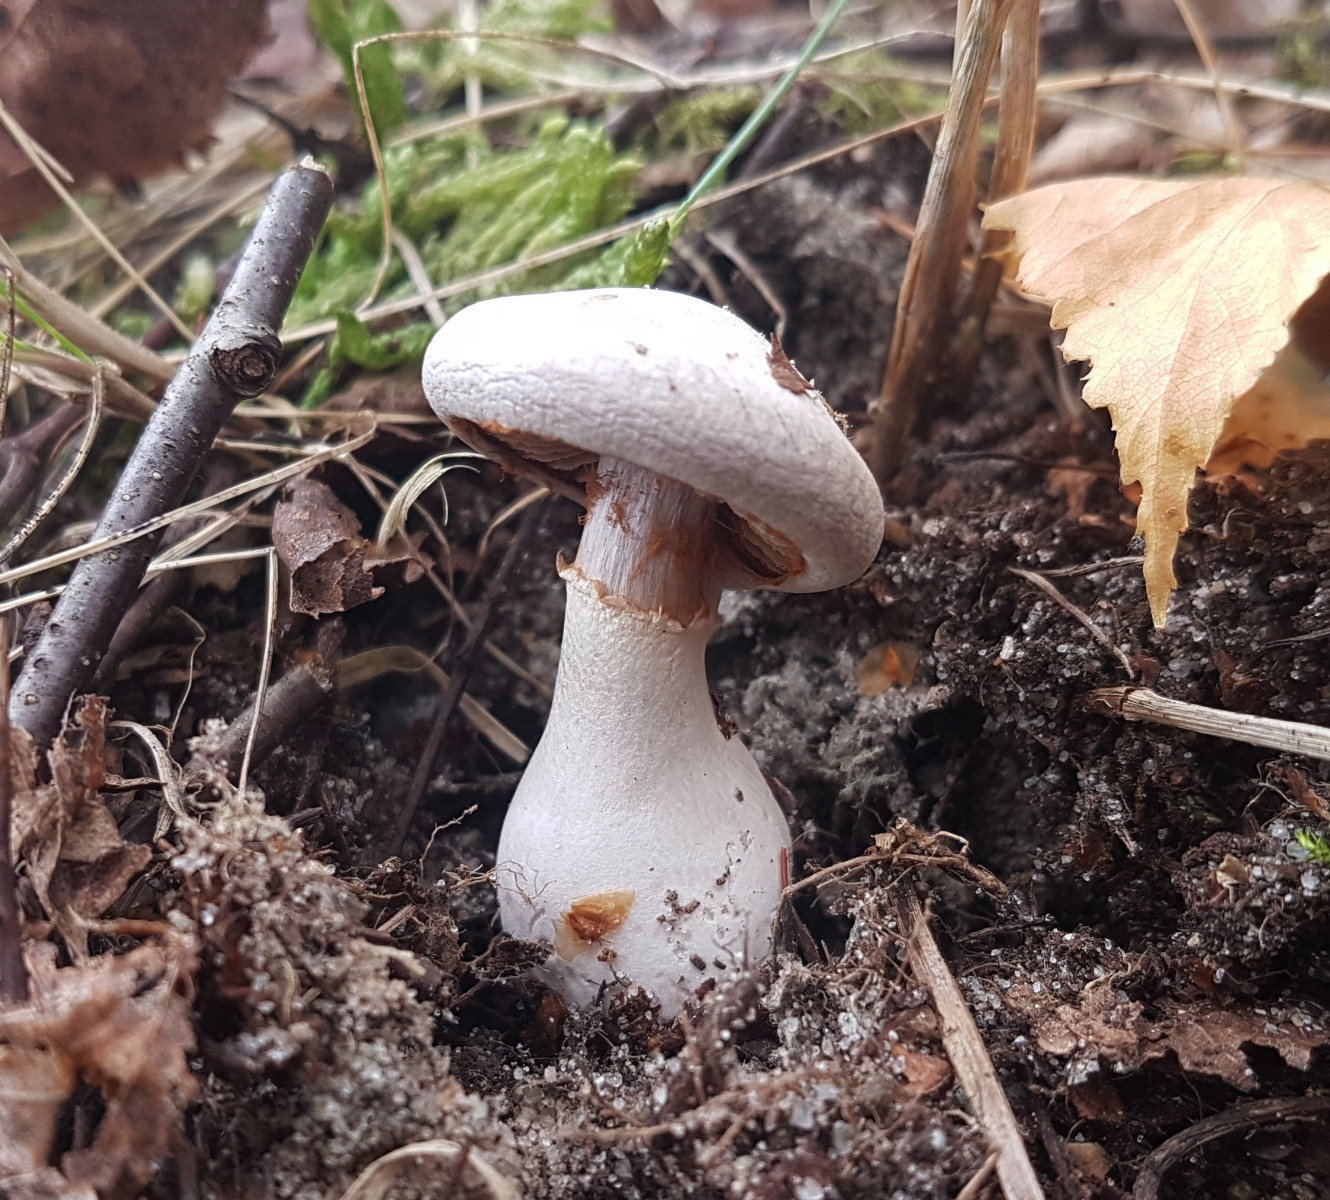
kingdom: Fungi
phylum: Basidiomycota
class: Agaricomycetes
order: Agaricales
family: Cortinariaceae
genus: Cortinarius
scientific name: Cortinarius alboviolaceus
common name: lysviolet slørhat
